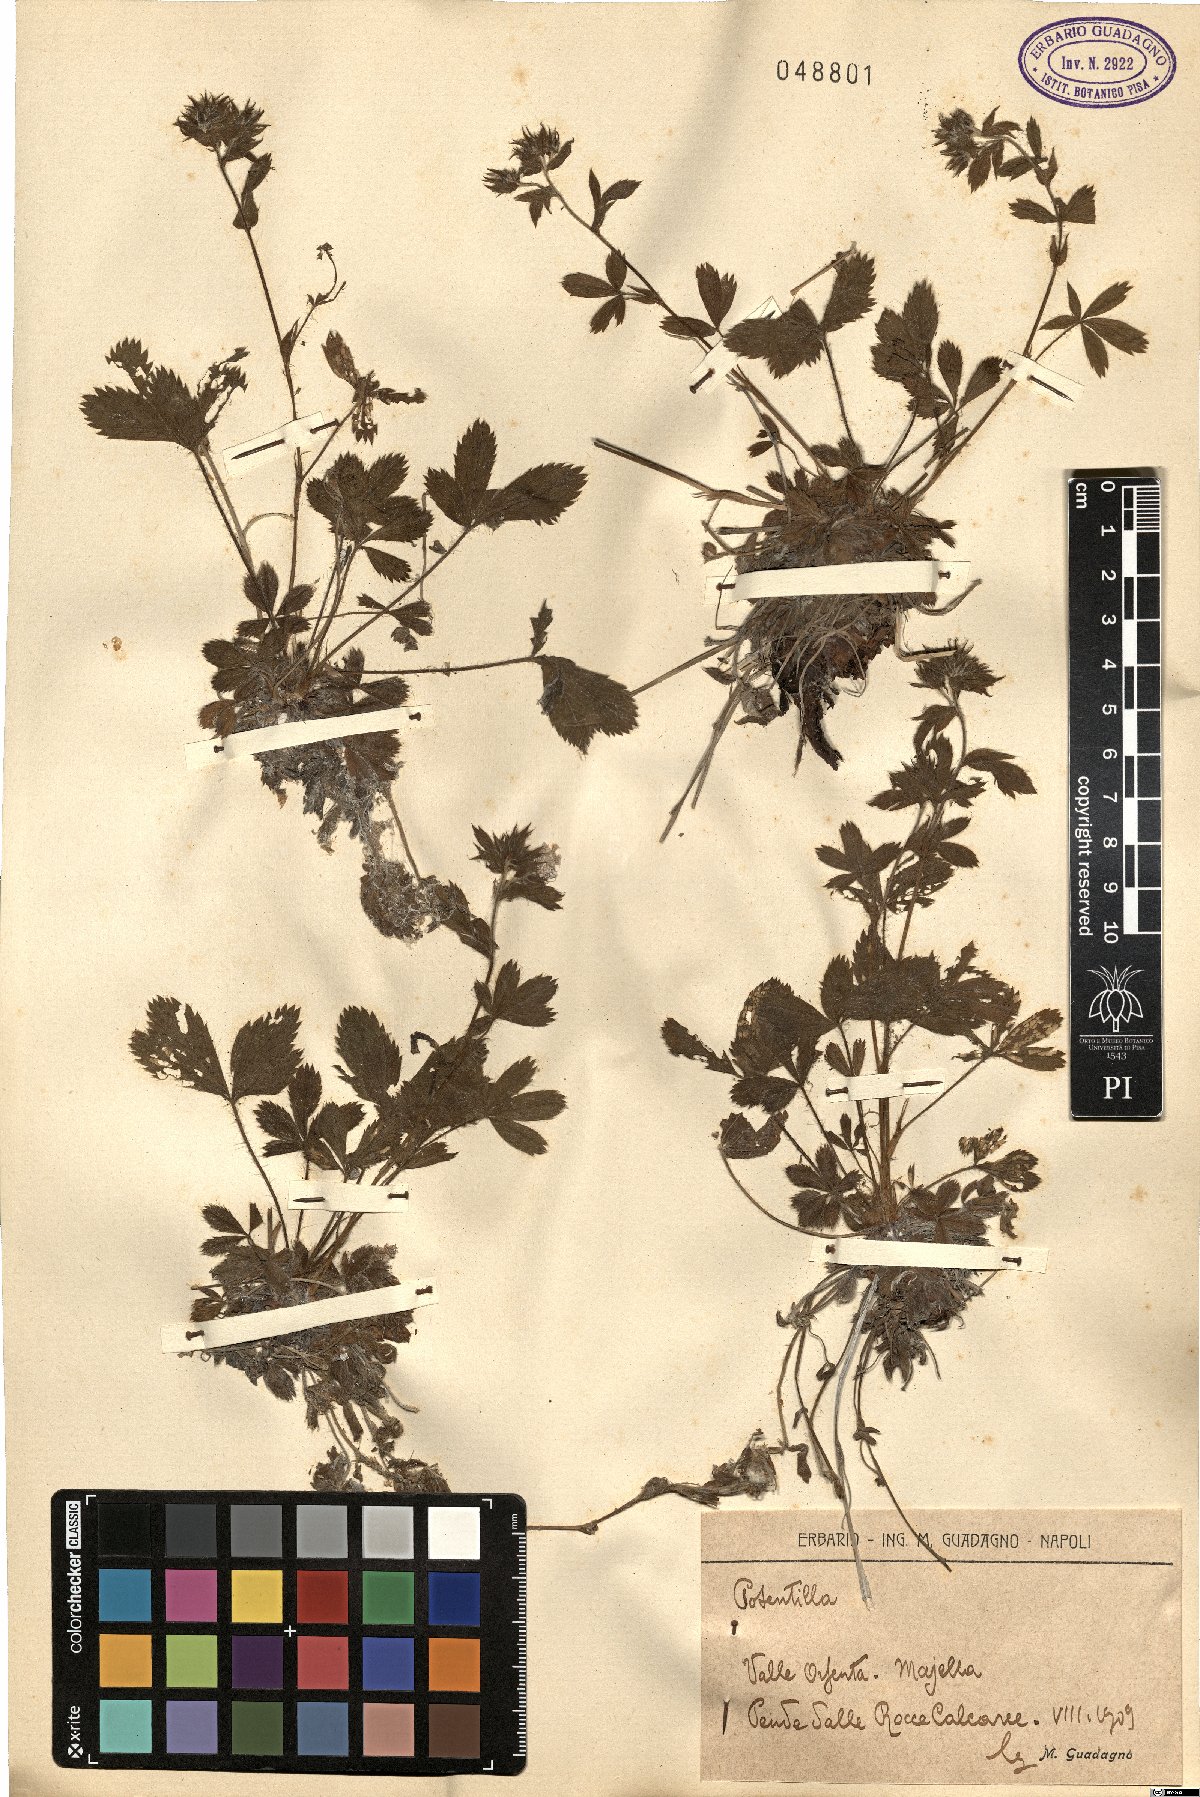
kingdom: Plantae
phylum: Tracheophyta
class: Magnoliopsida
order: Rosales
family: Rosaceae
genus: Potentilla
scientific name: Potentilla
